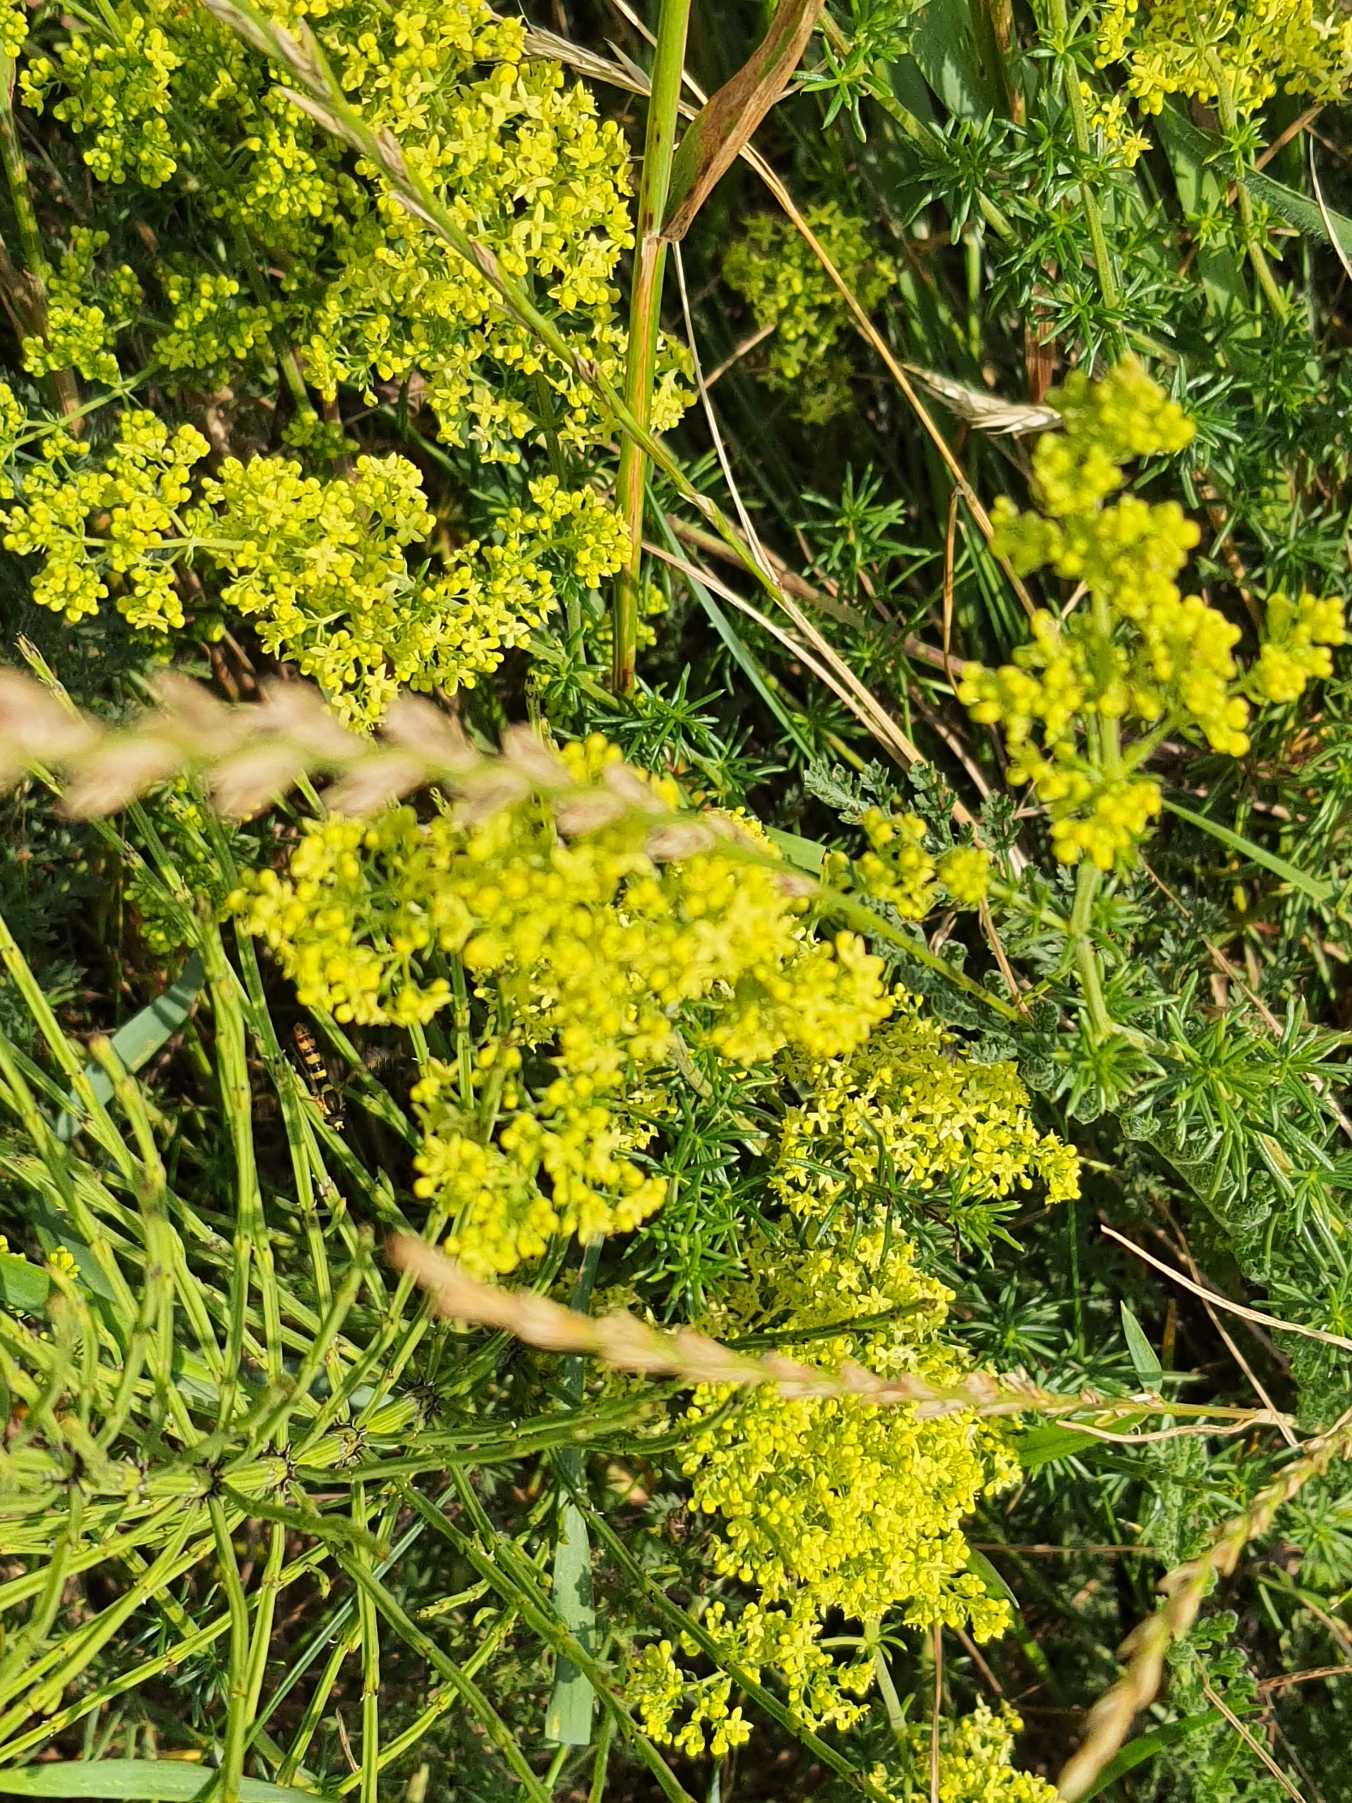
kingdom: Plantae
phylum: Tracheophyta
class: Magnoliopsida
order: Gentianales
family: Rubiaceae
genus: Galium
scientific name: Galium verum
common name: Gul snerre
